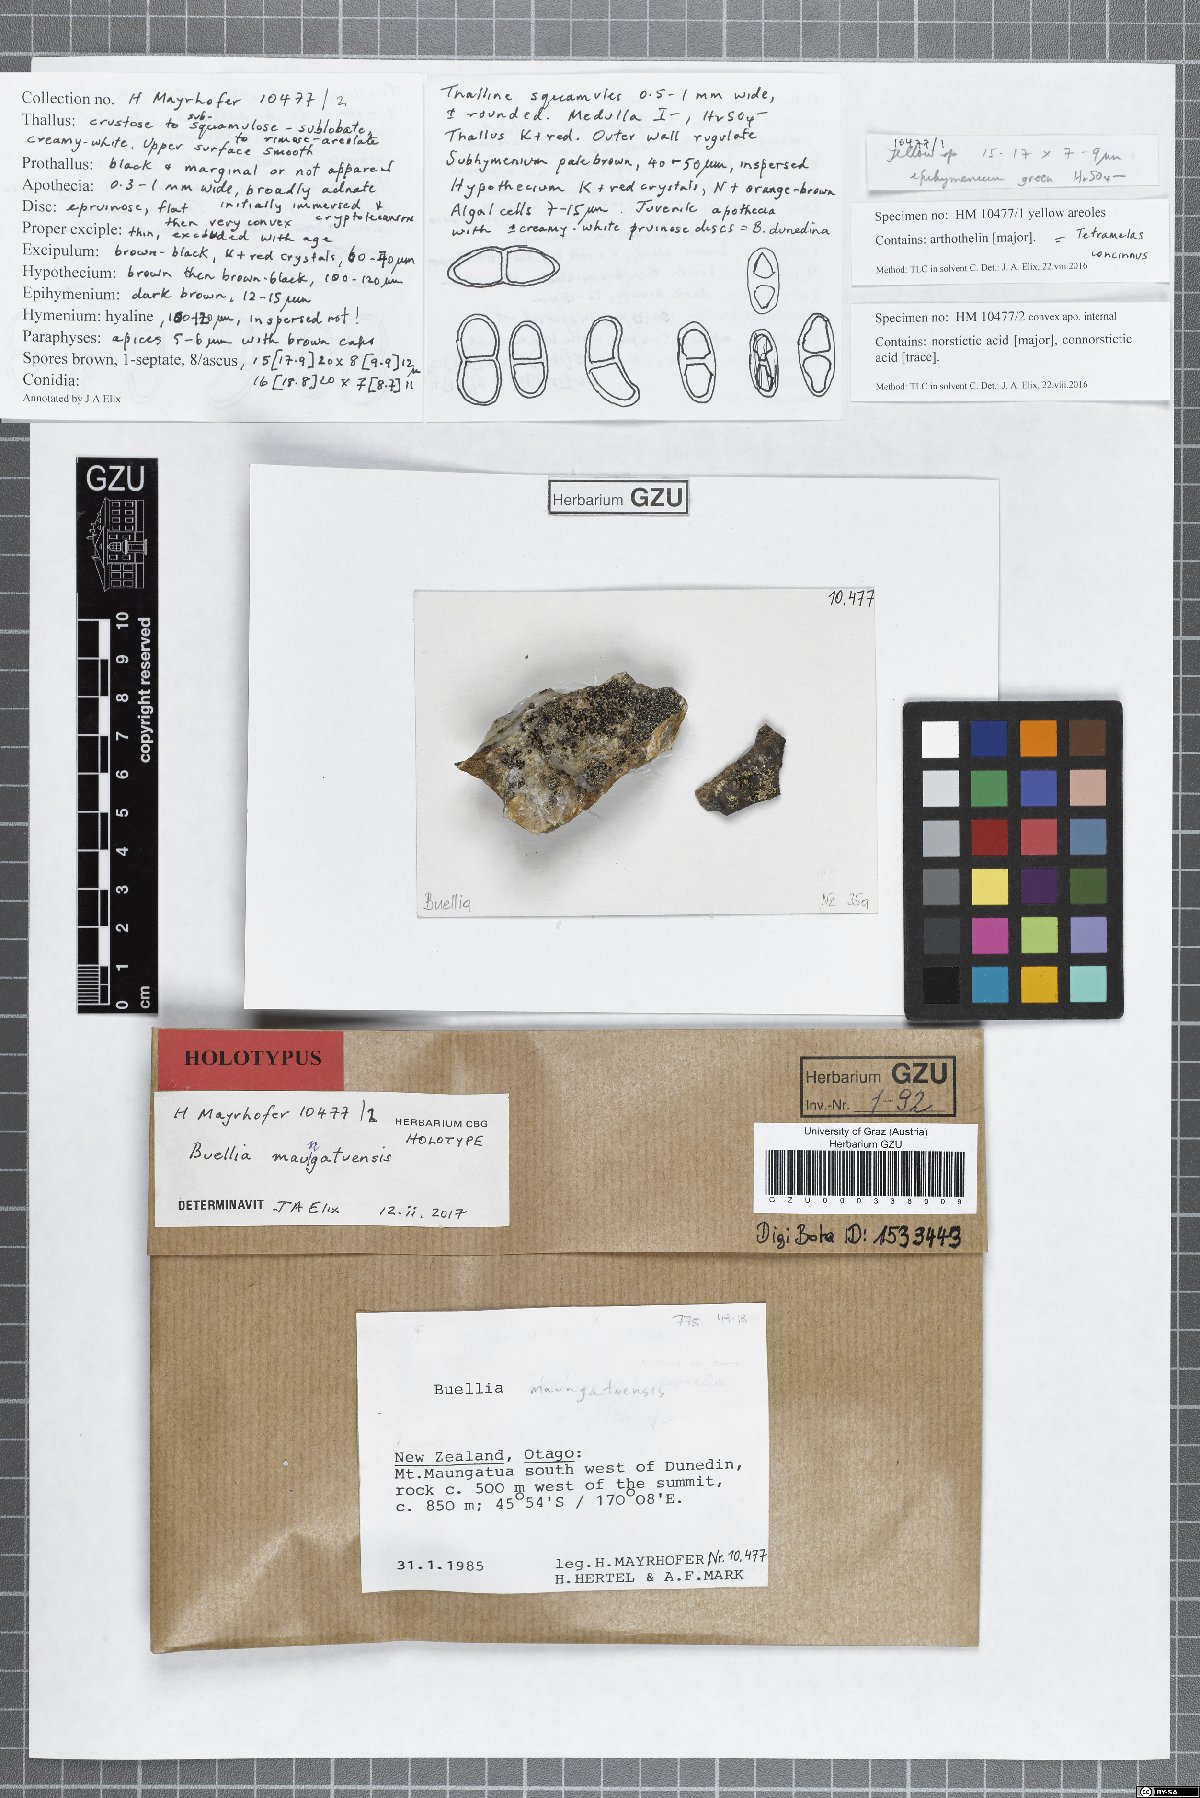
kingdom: Fungi
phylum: Ascomycota
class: Lecanoromycetes
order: Caliciales
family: Caliciaceae
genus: Buellia
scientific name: Buellia maungatuensis
